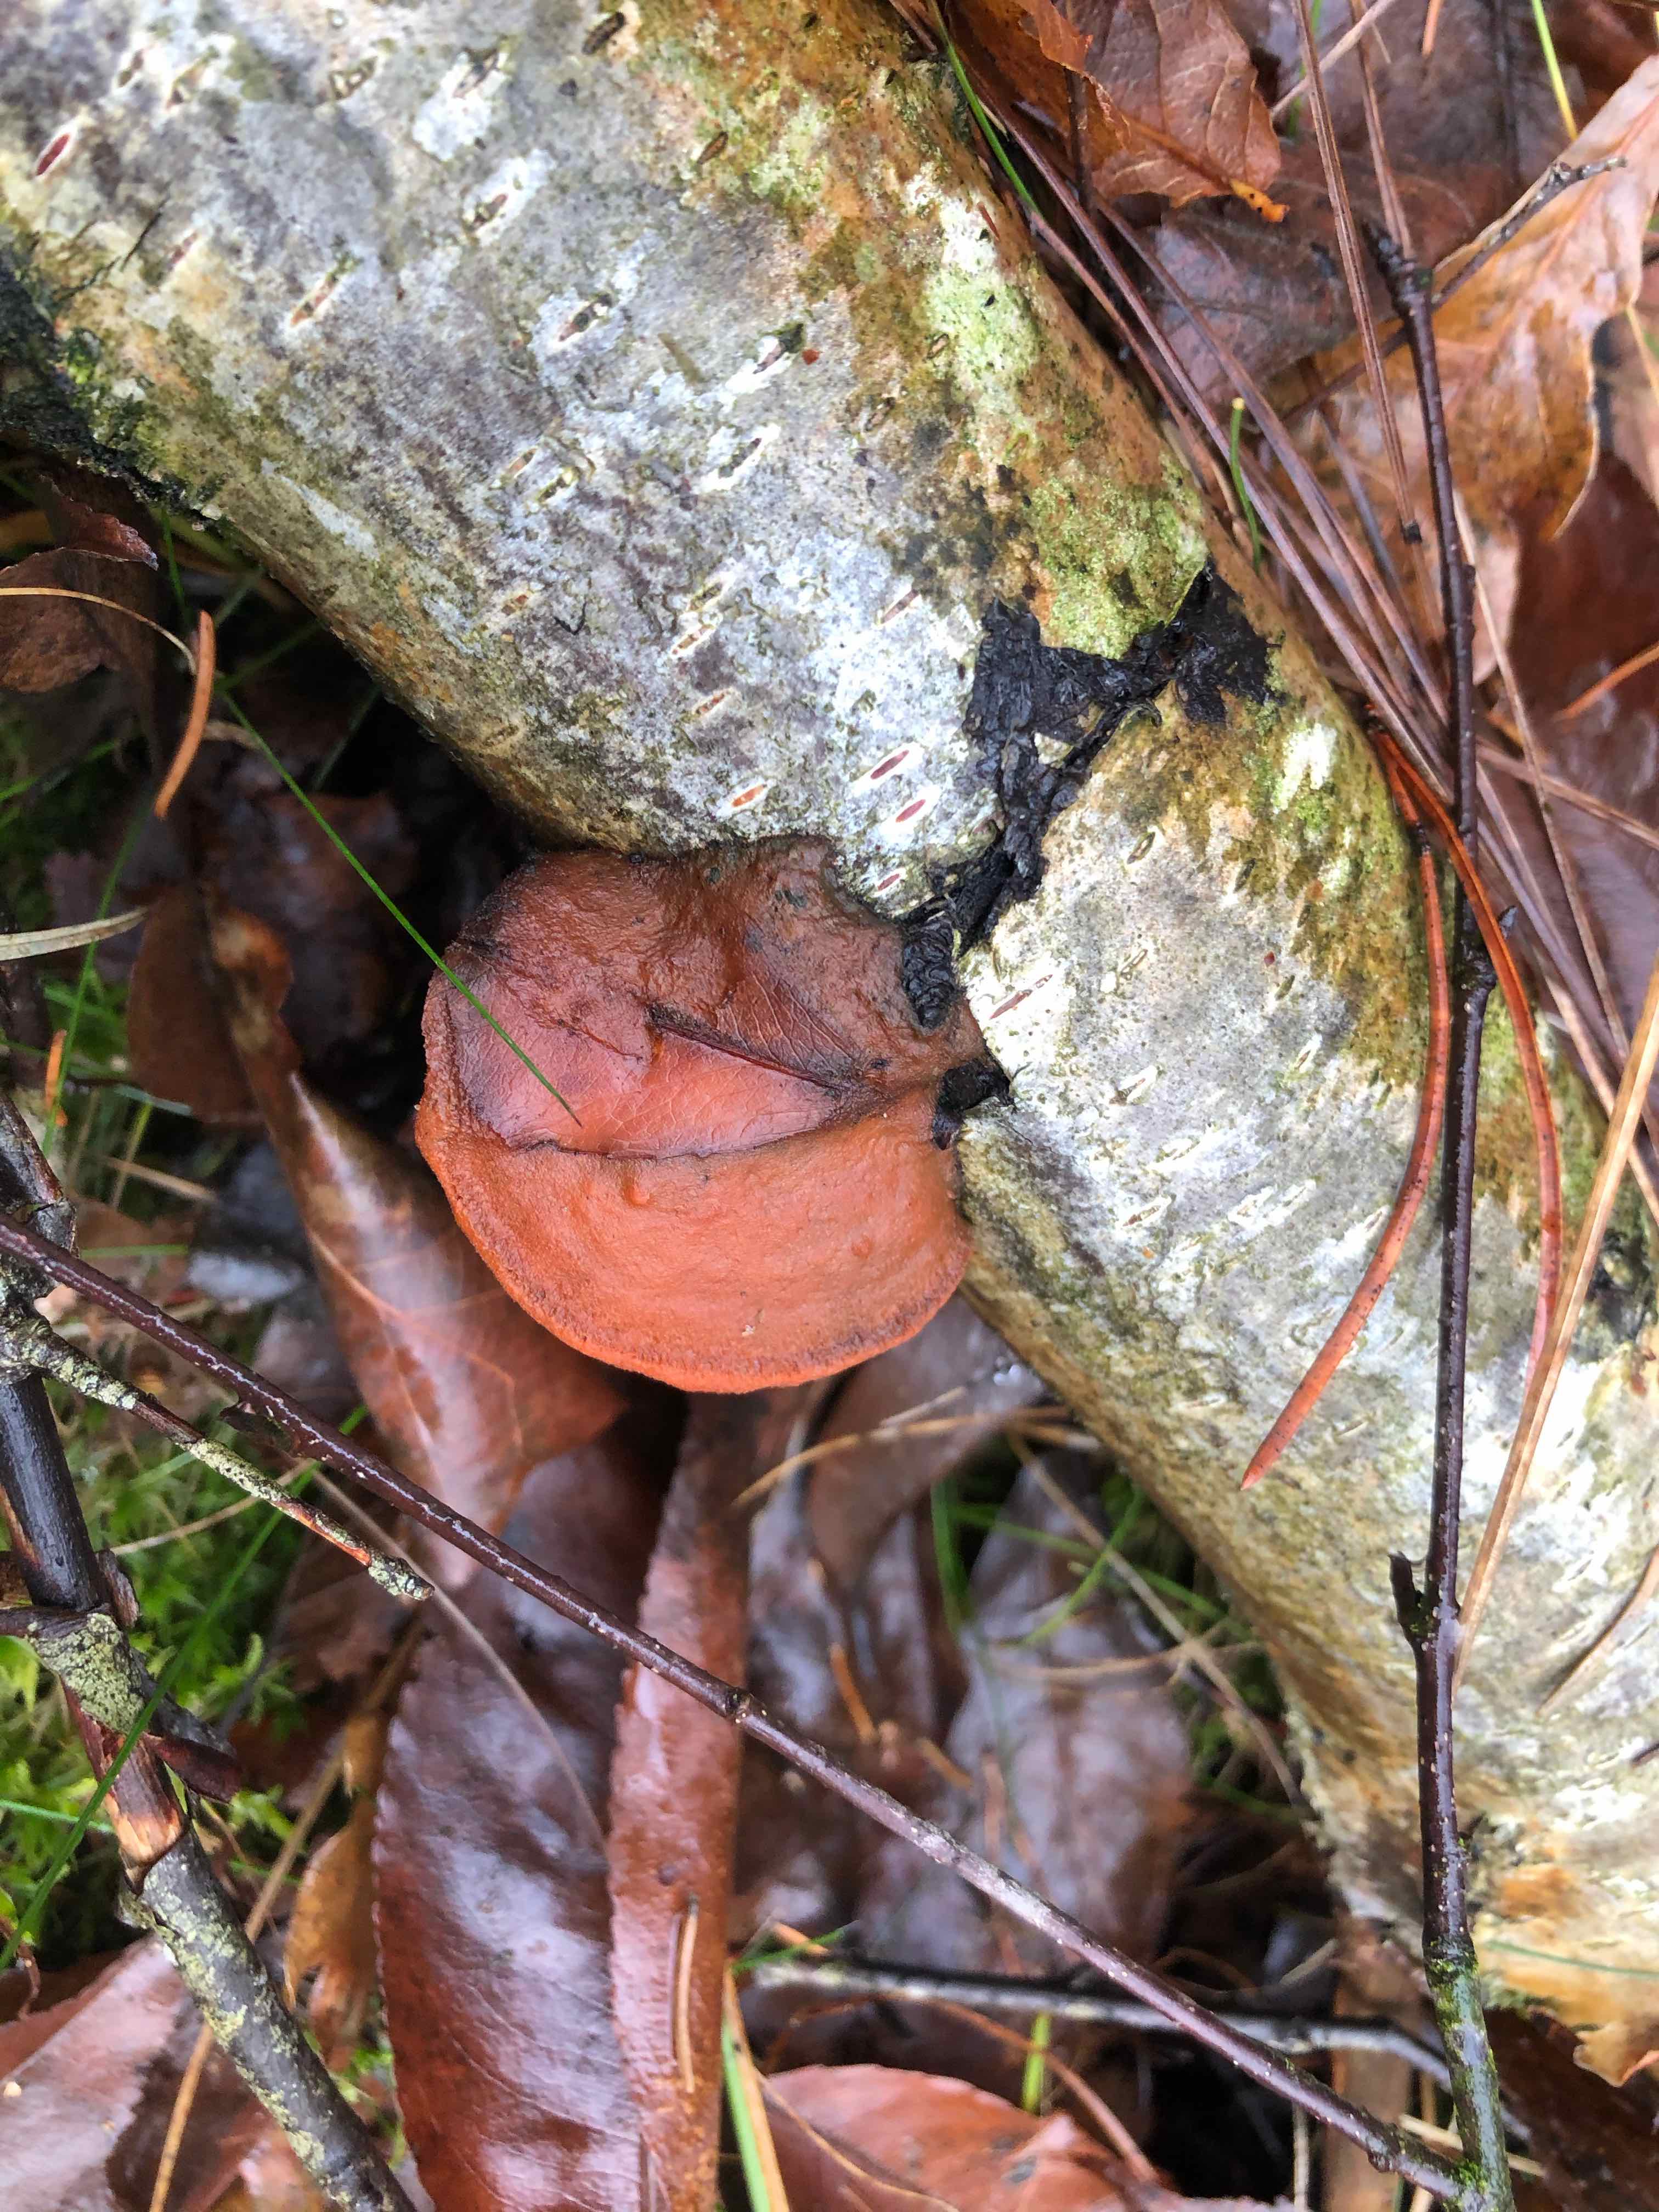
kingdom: Fungi
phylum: Basidiomycota
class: Agaricomycetes
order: Polyporales
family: Polyporaceae
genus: Trametes
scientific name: Trametes cinnabarina
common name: cinnoberporesvamp
